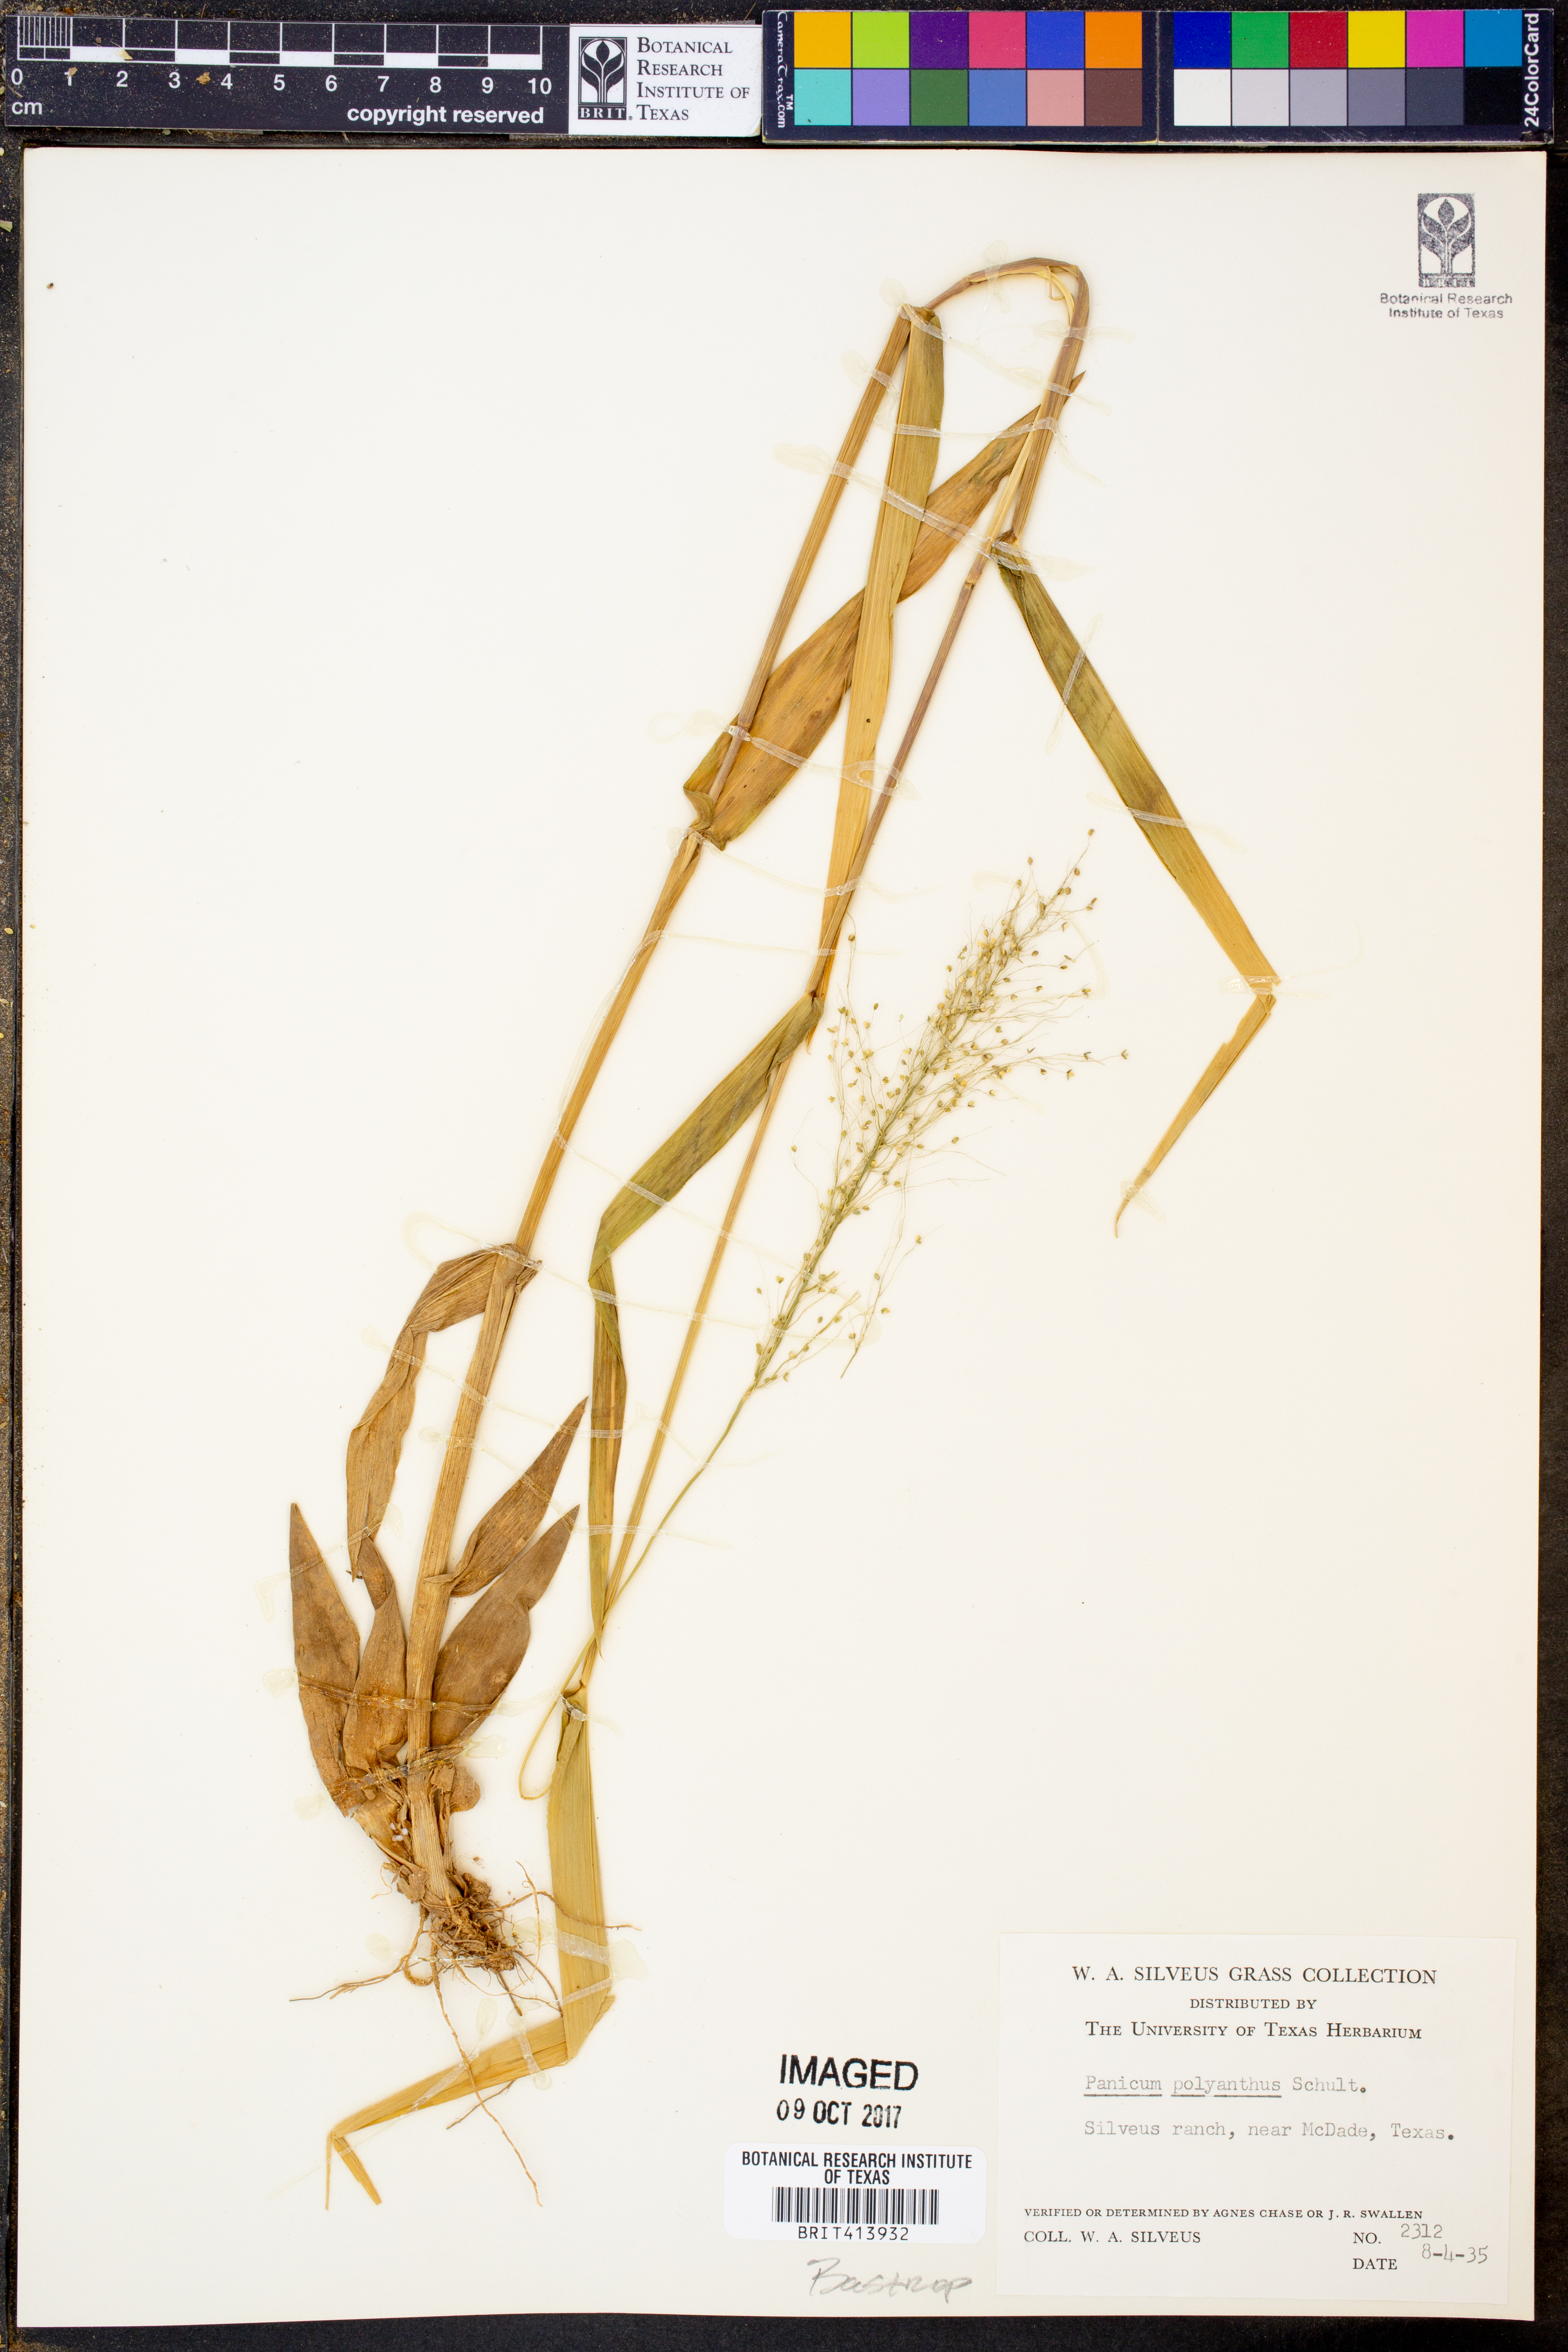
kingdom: Plantae
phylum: Tracheophyta
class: Liliopsida
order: Poales
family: Poaceae
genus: Dichanthelium
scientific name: Dichanthelium polyanthes
